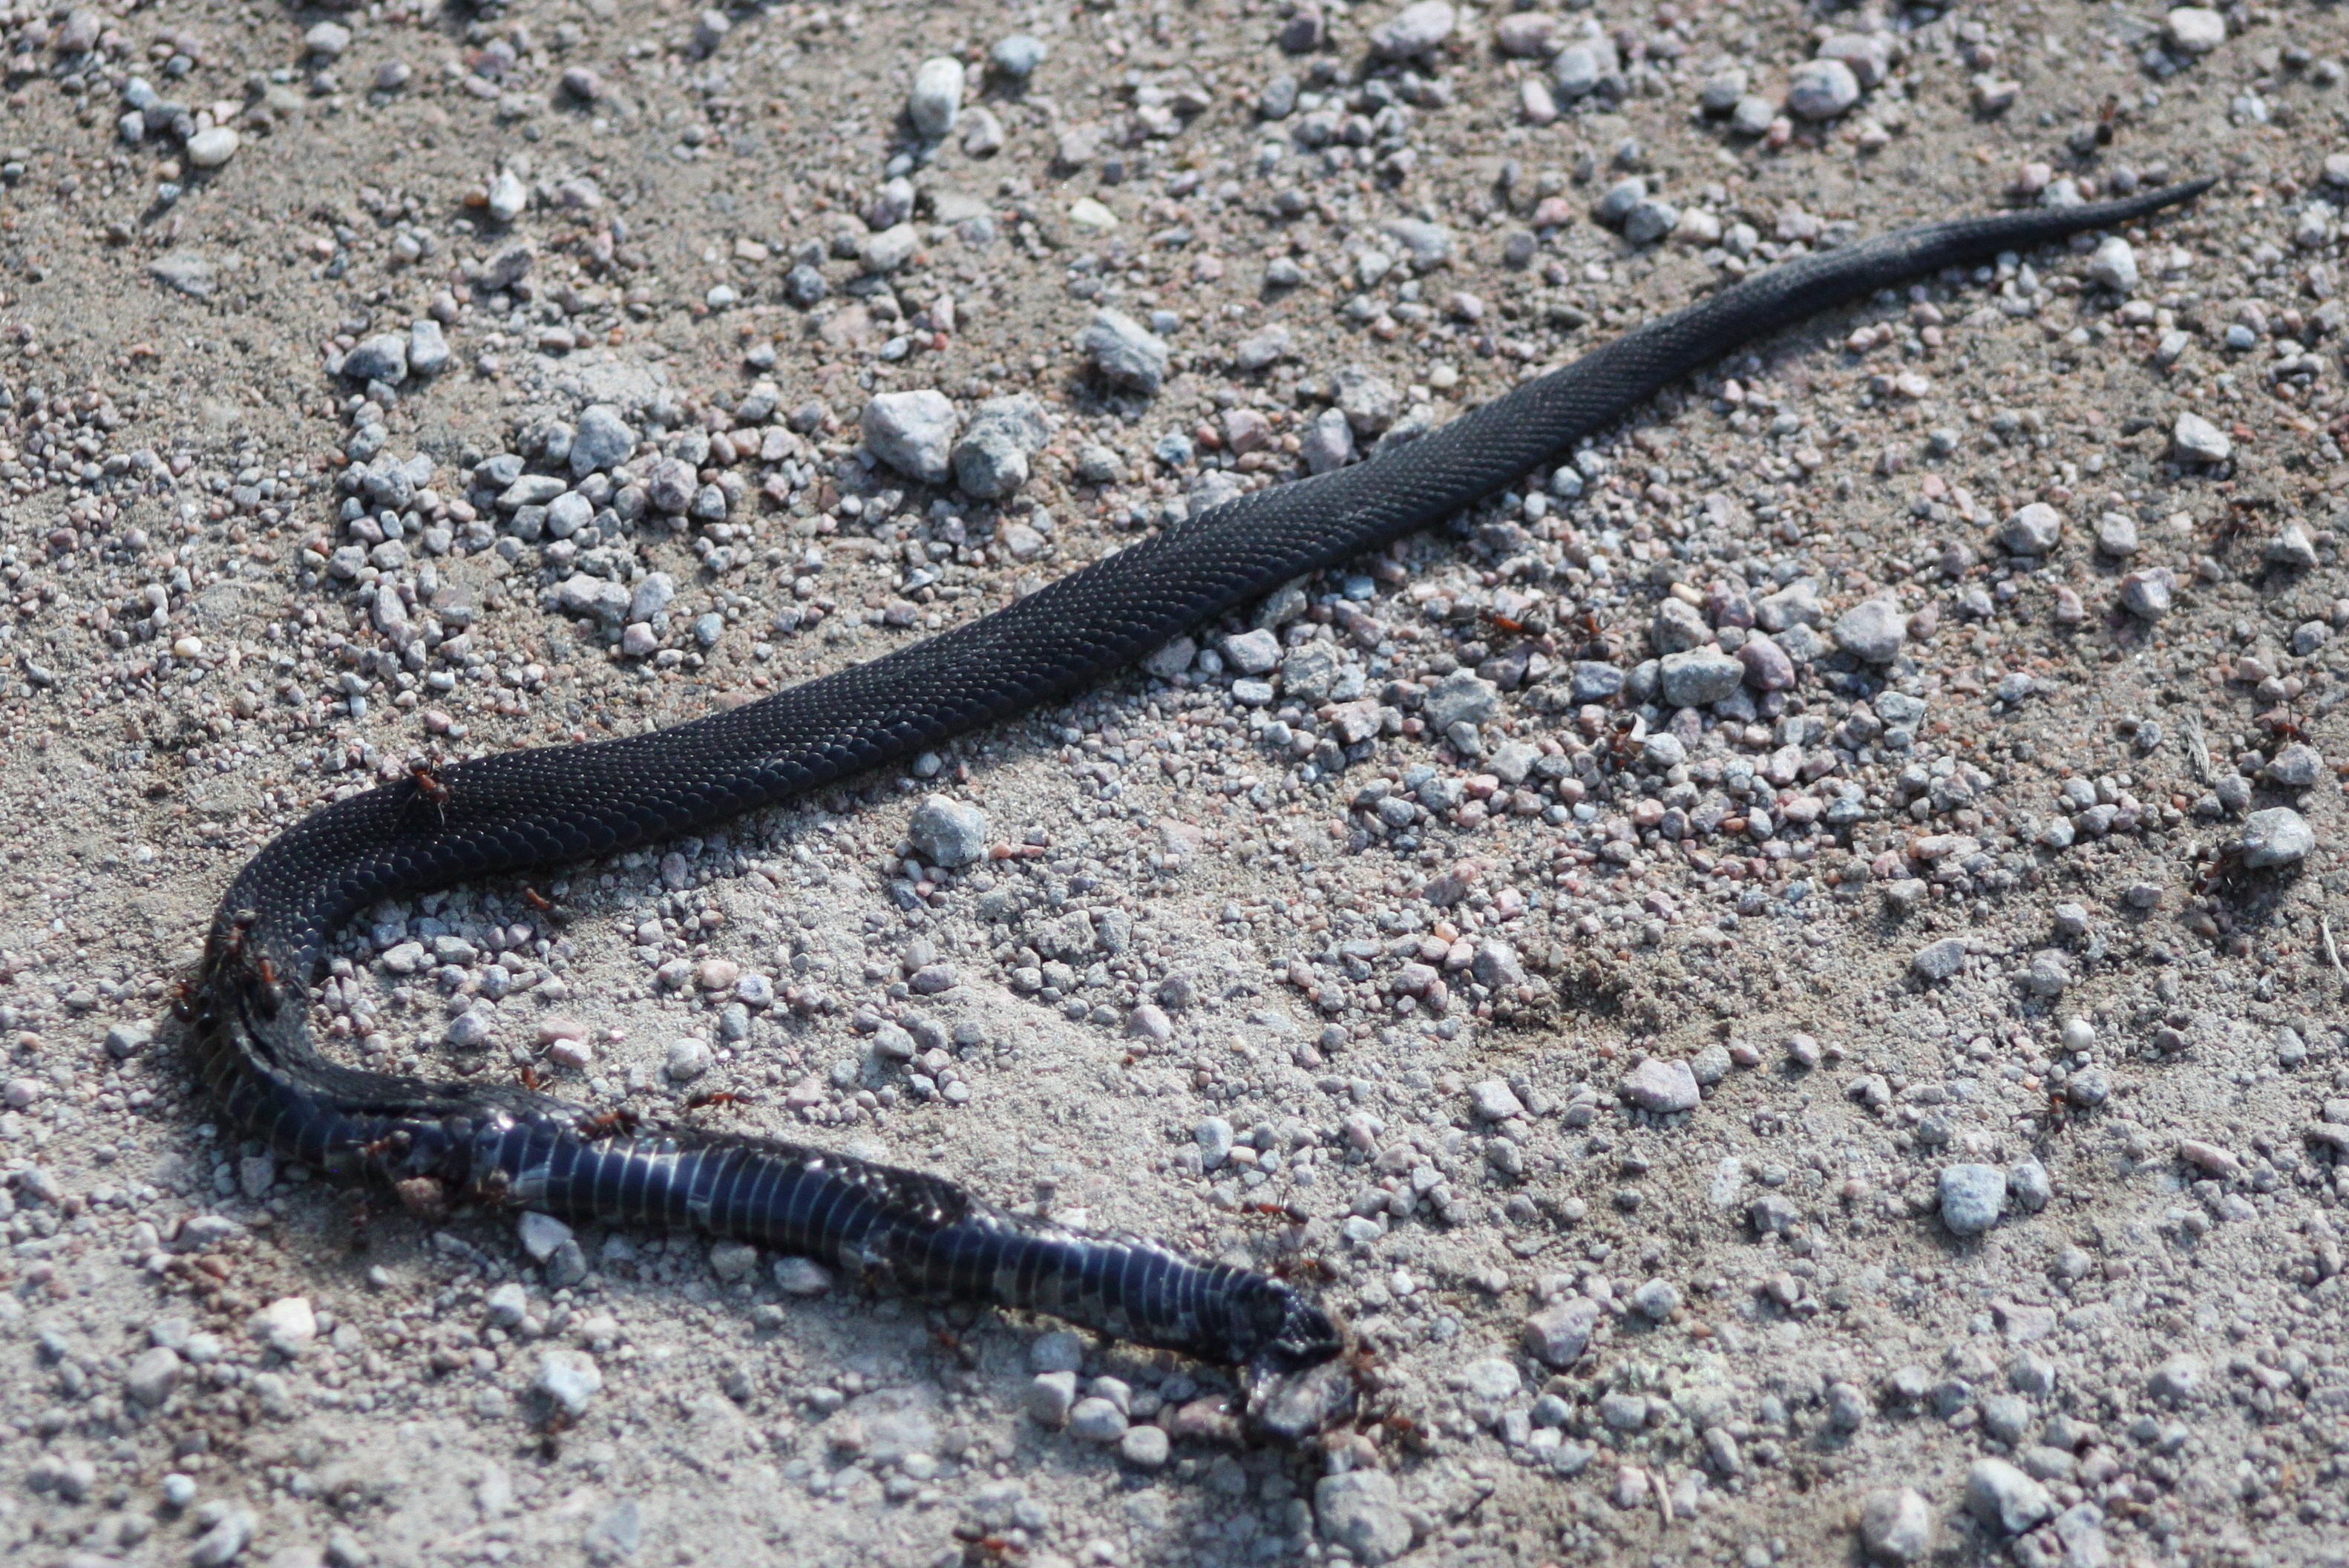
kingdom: Animalia
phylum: Chordata
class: Squamata
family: Viperidae
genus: Vipera
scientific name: Vipera berus
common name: Adder
